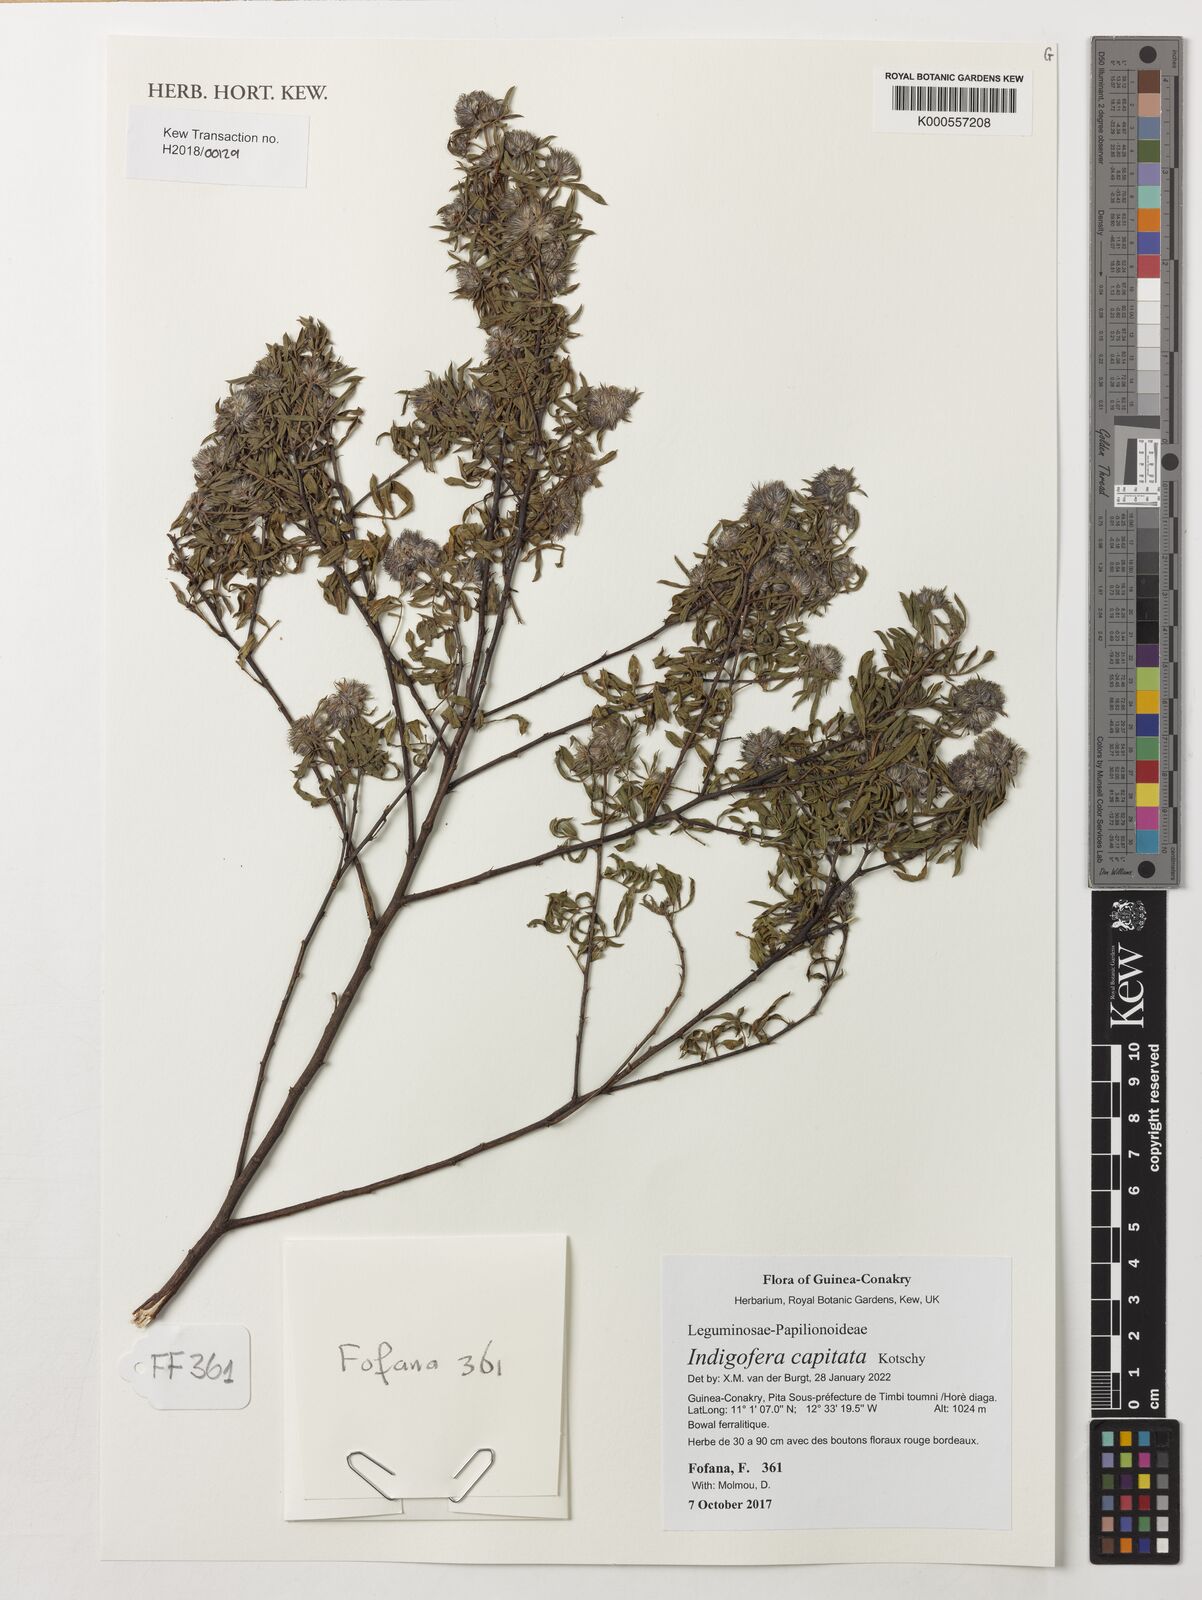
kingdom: Plantae
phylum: Tracheophyta
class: Magnoliopsida
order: Fabales
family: Fabaceae
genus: Indigofera
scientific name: Indigofera capitata
